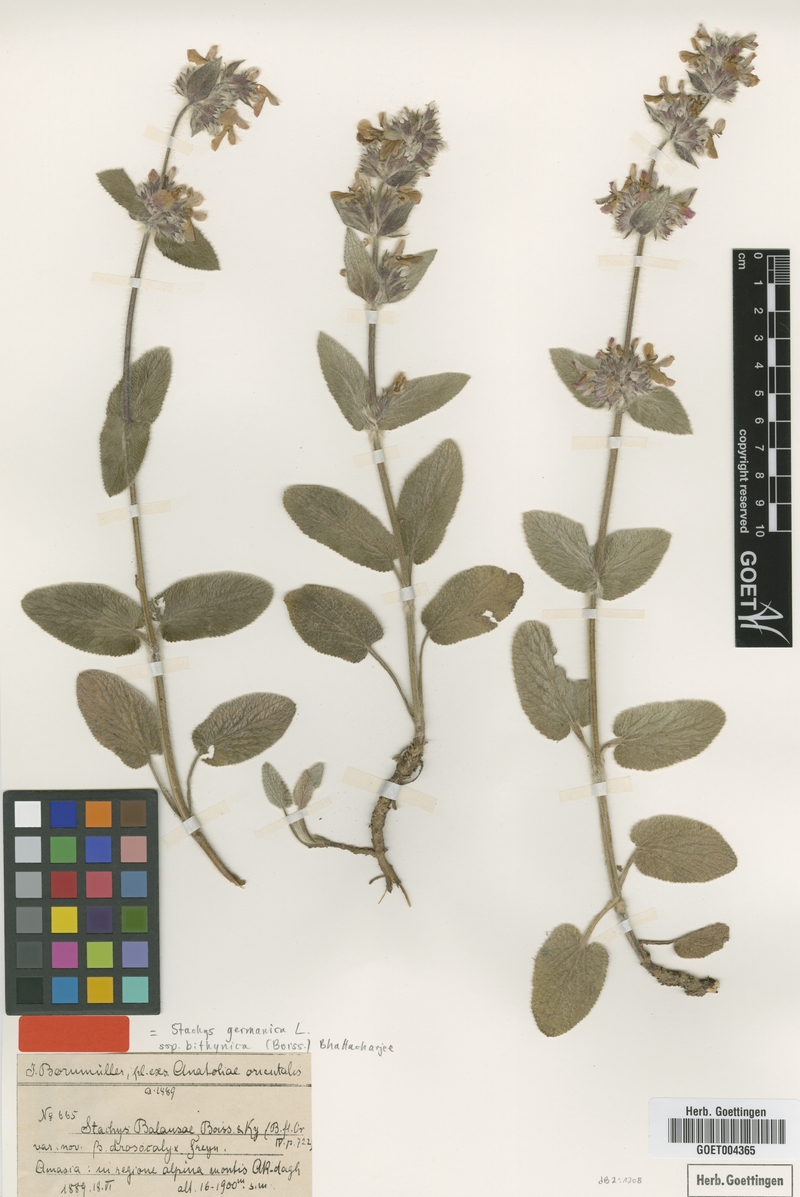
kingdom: Plantae
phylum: Tracheophyta
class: Magnoliopsida
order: Lamiales
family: Lamiaceae
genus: Stachys
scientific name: Stachys bithynica
